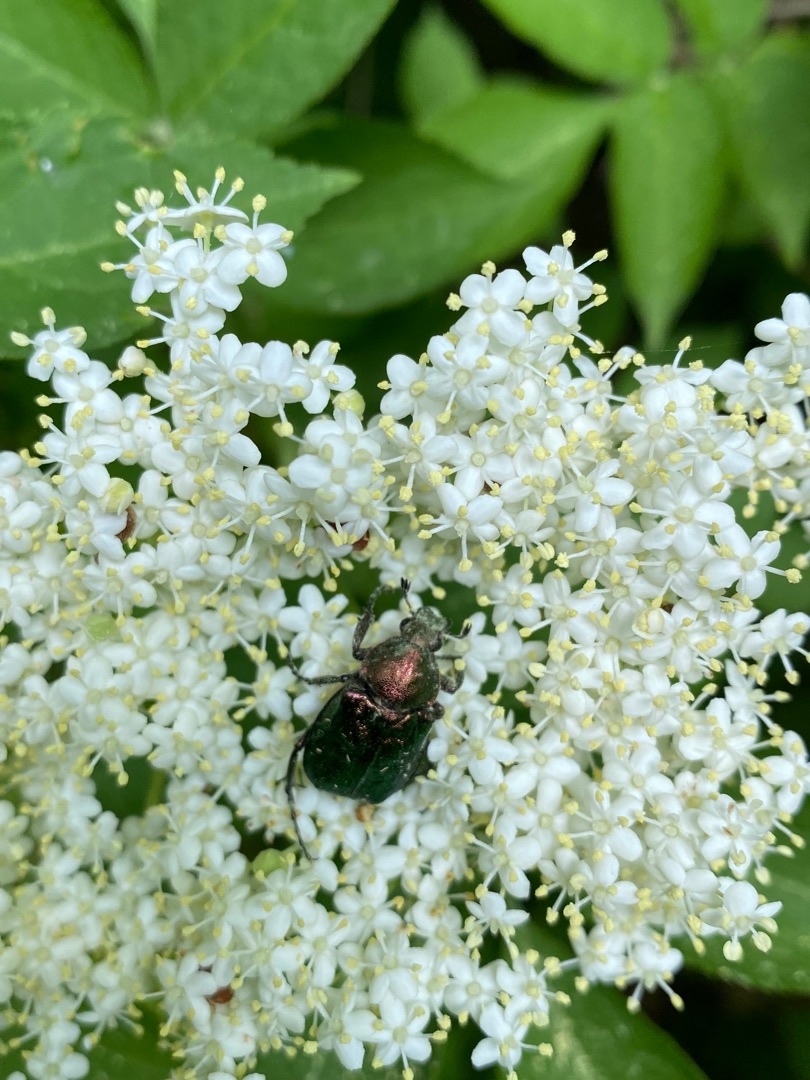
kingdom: Animalia
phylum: Arthropoda
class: Insecta
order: Coleoptera
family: Scarabaeidae
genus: Gnorimus
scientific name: Gnorimus nobilis
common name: Grøn pragttorbist
